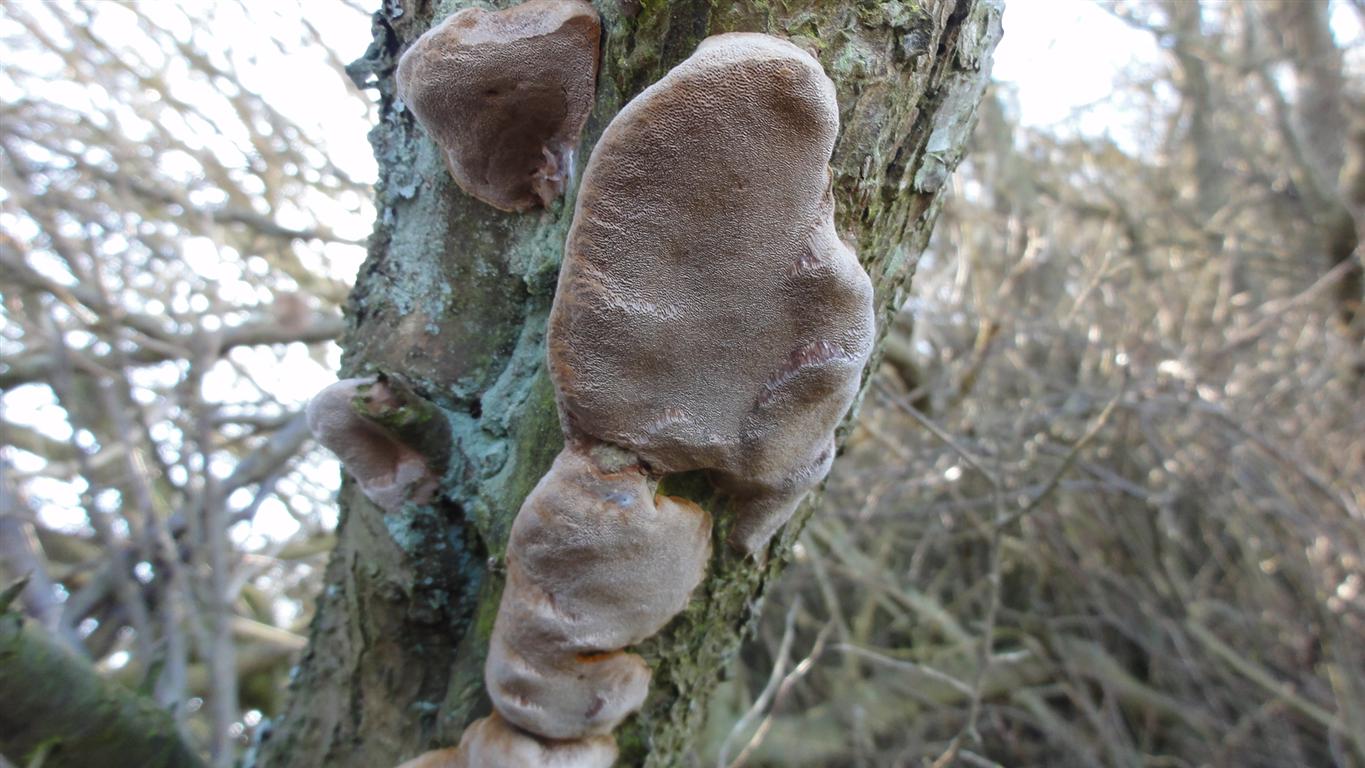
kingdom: Fungi
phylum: Basidiomycota
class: Agaricomycetes
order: Hymenochaetales
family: Hymenochaetaceae
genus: Phellinus
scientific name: Phellinus pomaceus
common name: blomme-ildporesvamp
